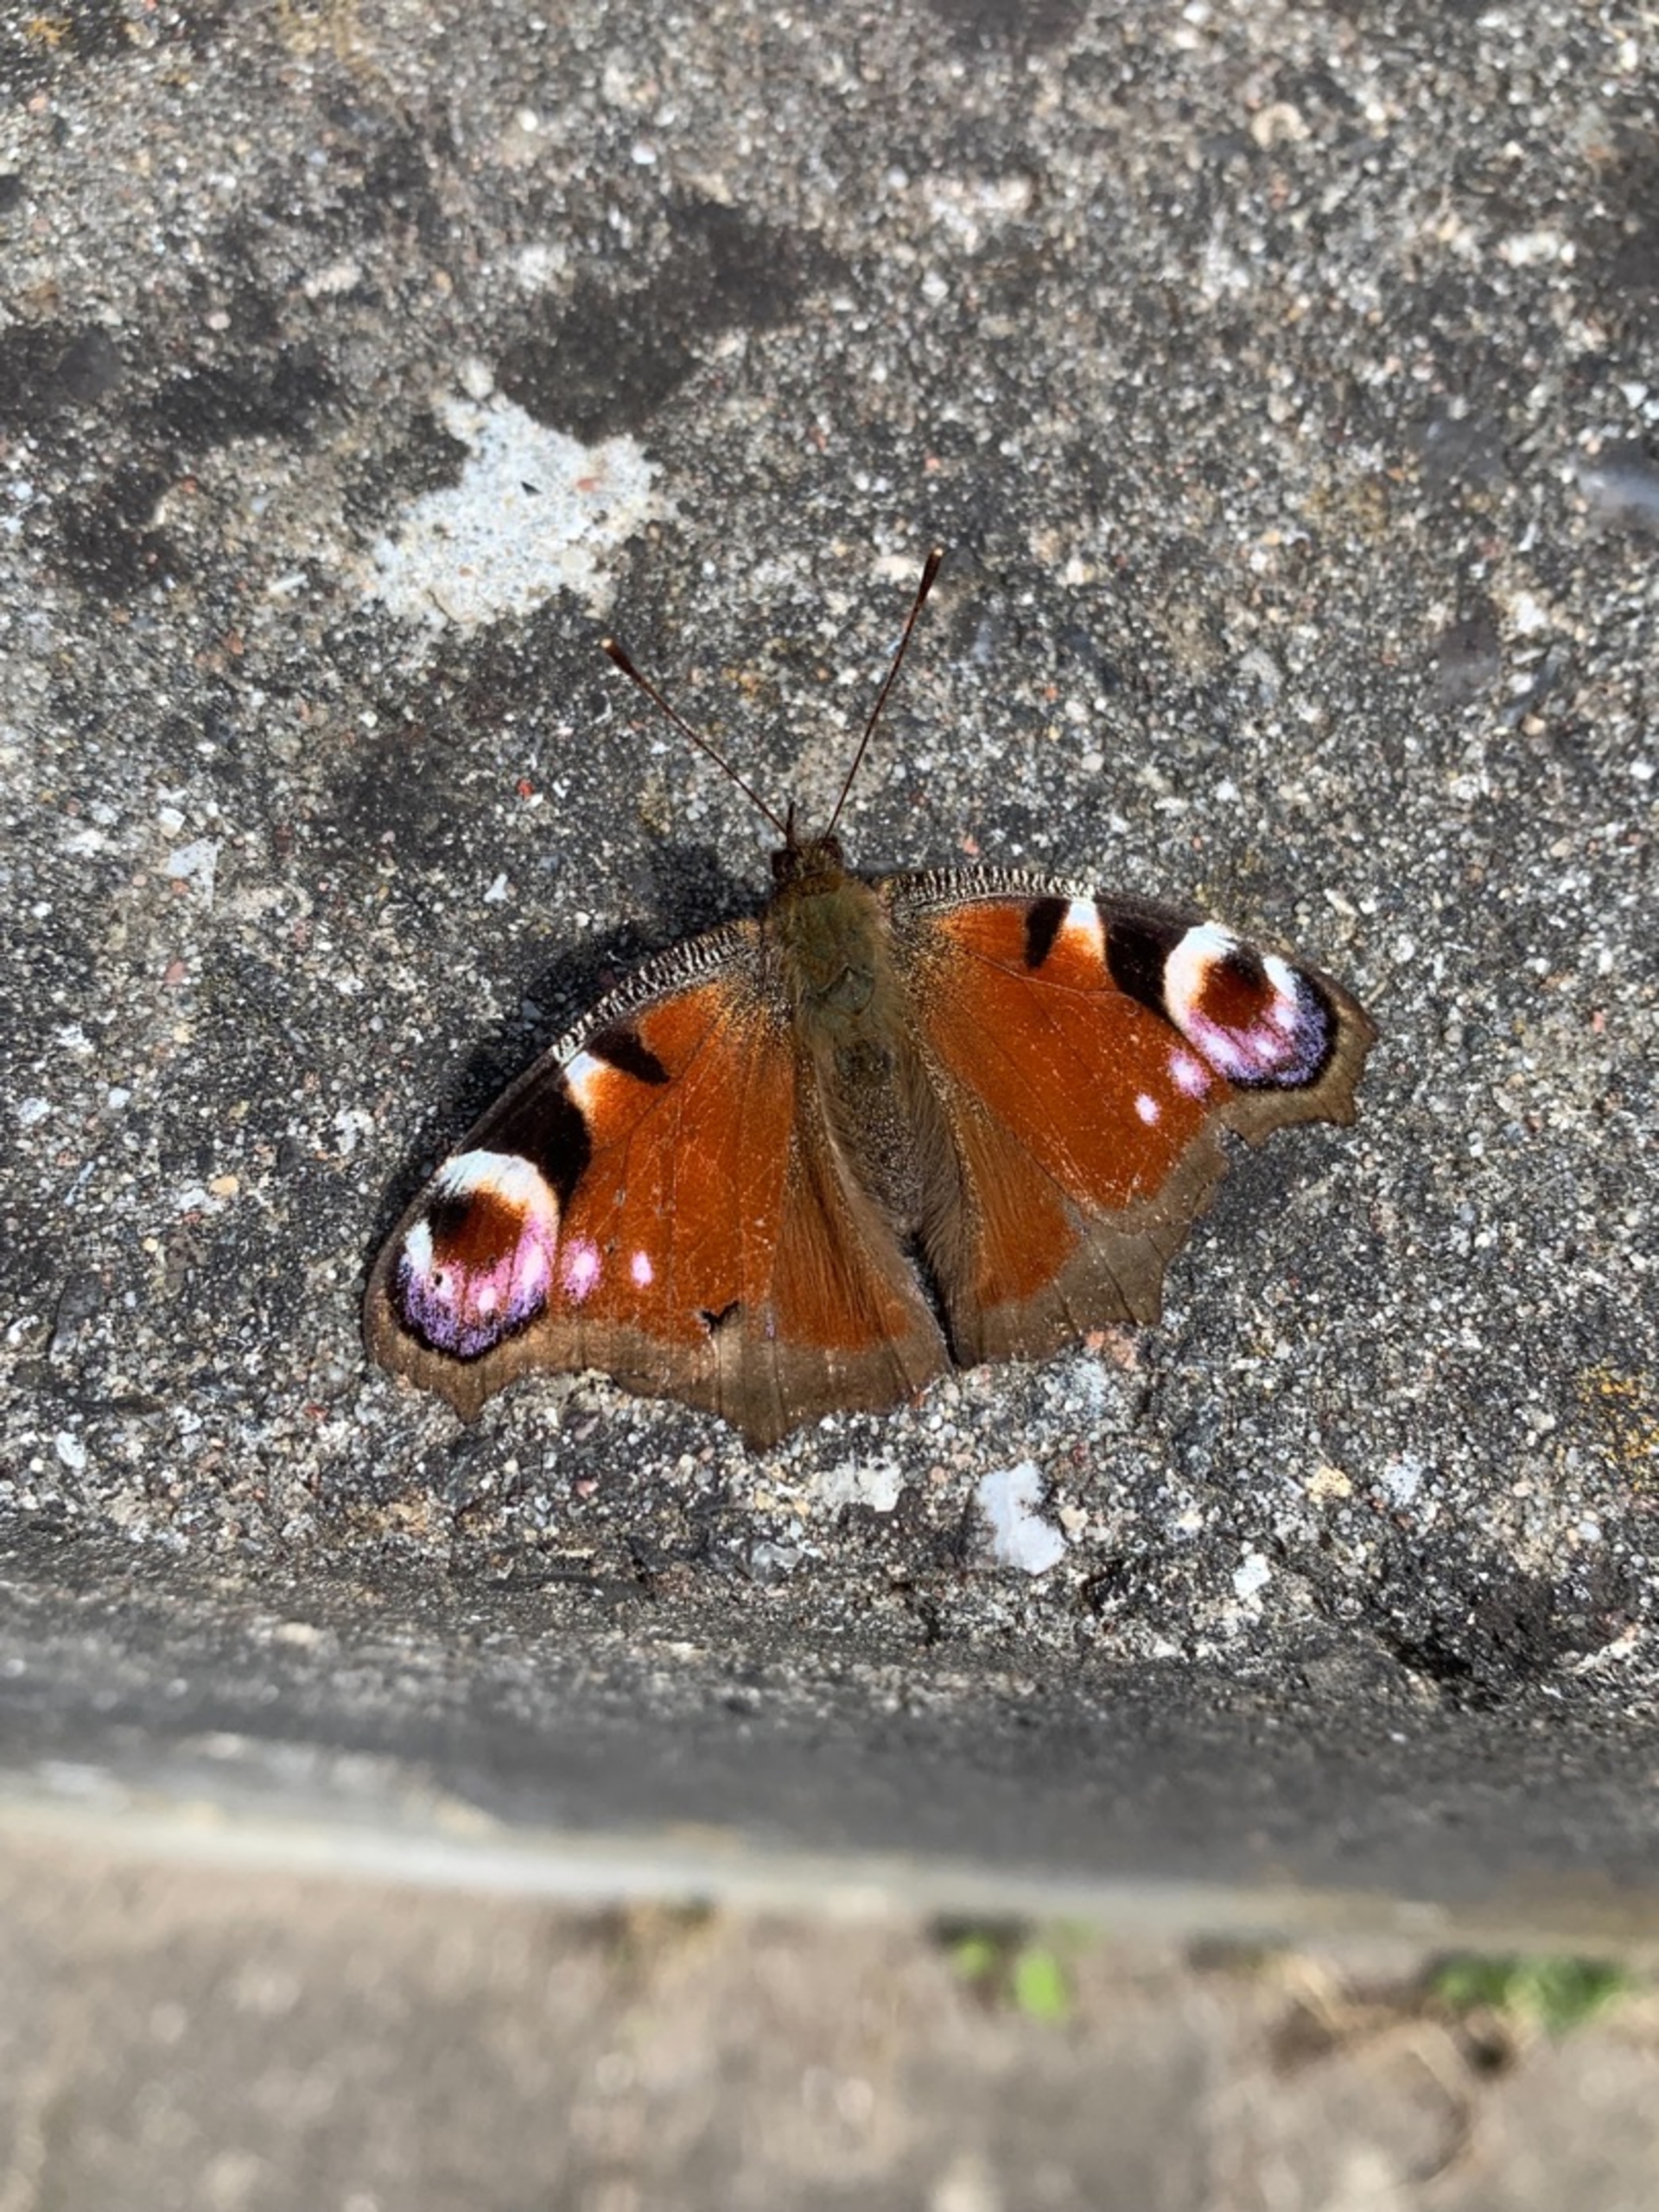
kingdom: Animalia
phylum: Arthropoda
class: Insecta
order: Lepidoptera
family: Nymphalidae
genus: Aglais
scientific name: Aglais io
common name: Dagpåfugleøje
